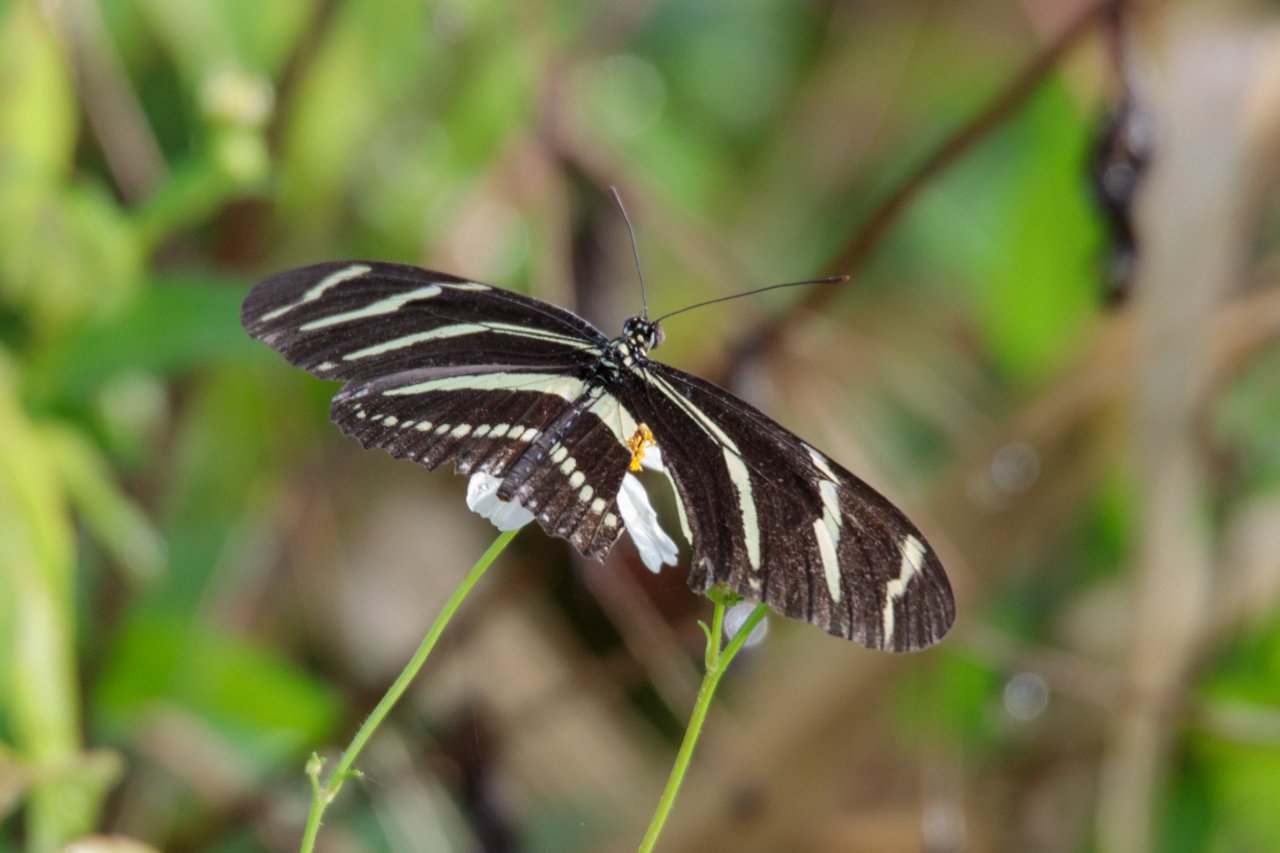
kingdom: Animalia
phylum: Arthropoda
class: Insecta
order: Lepidoptera
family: Nymphalidae
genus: Heliconius
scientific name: Heliconius charithonia
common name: Zebra Longwing
